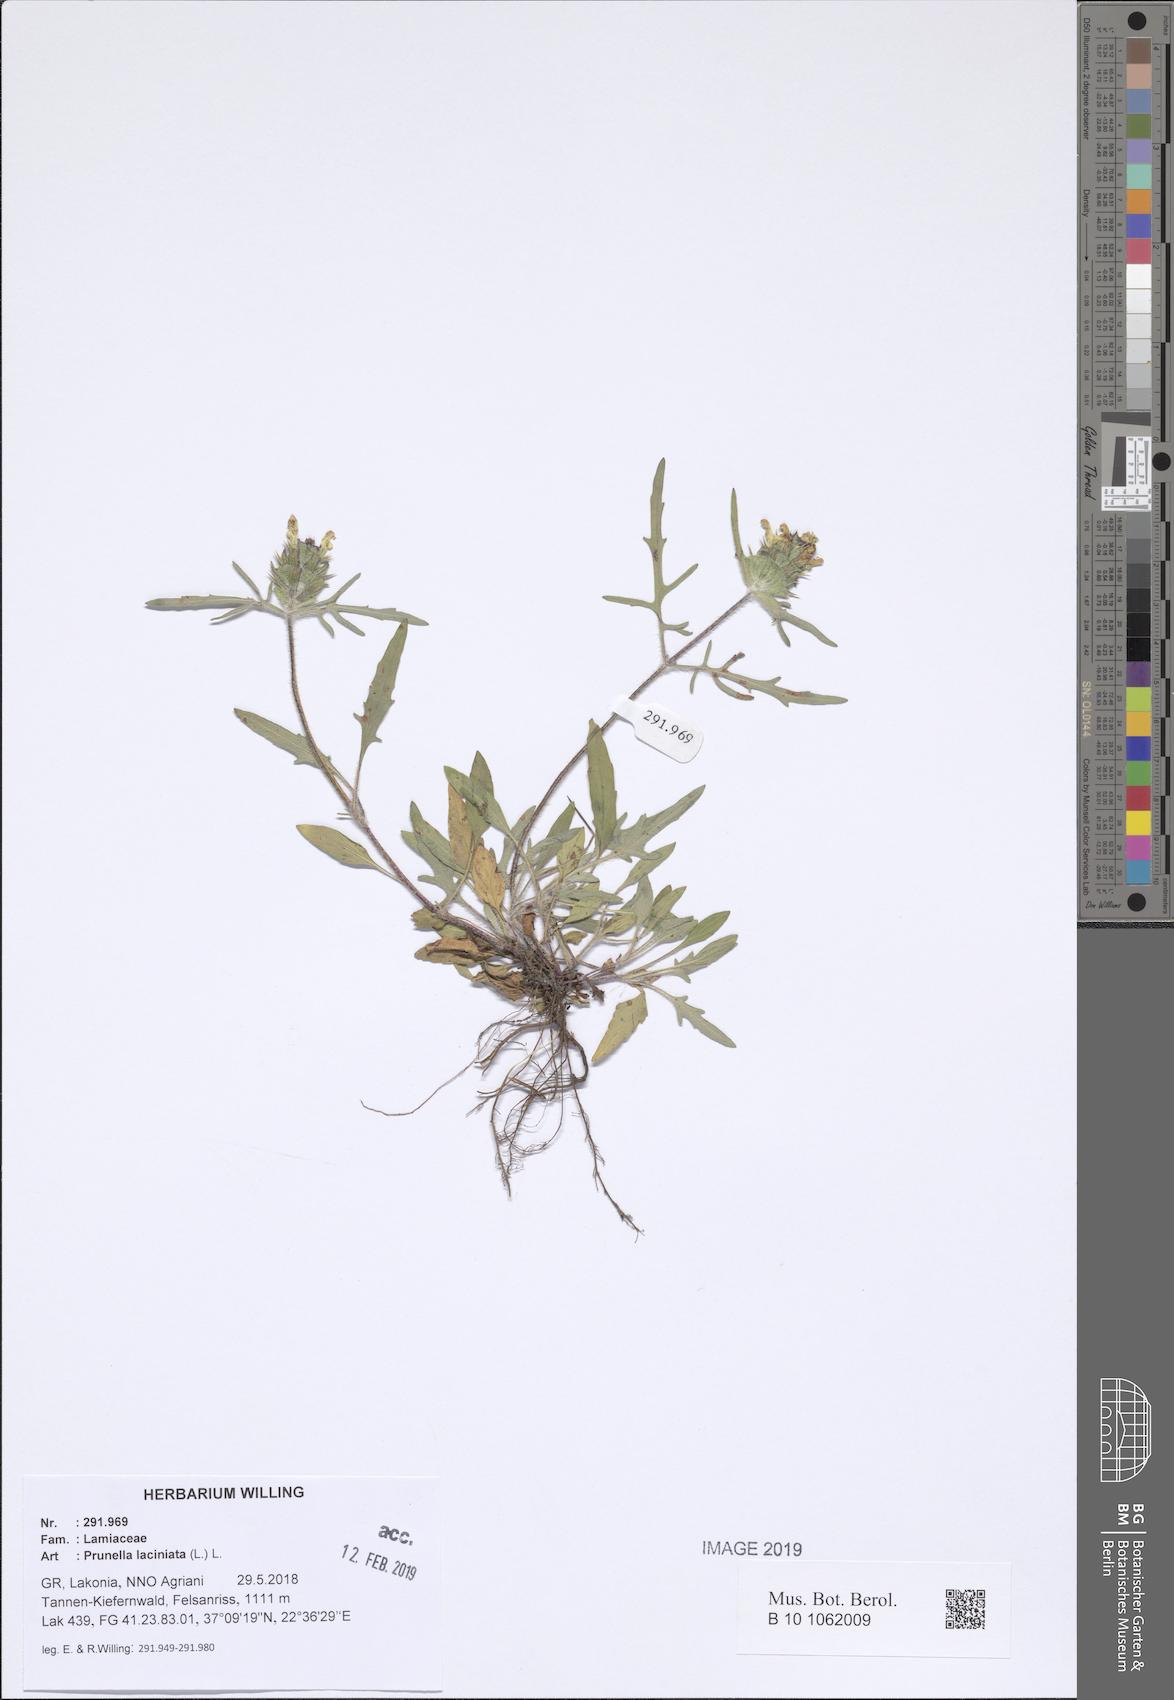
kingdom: Plantae
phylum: Tracheophyta
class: Magnoliopsida
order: Lamiales
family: Lamiaceae
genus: Prunella
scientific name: Prunella laciniata
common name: Cut-leaved selfheal
